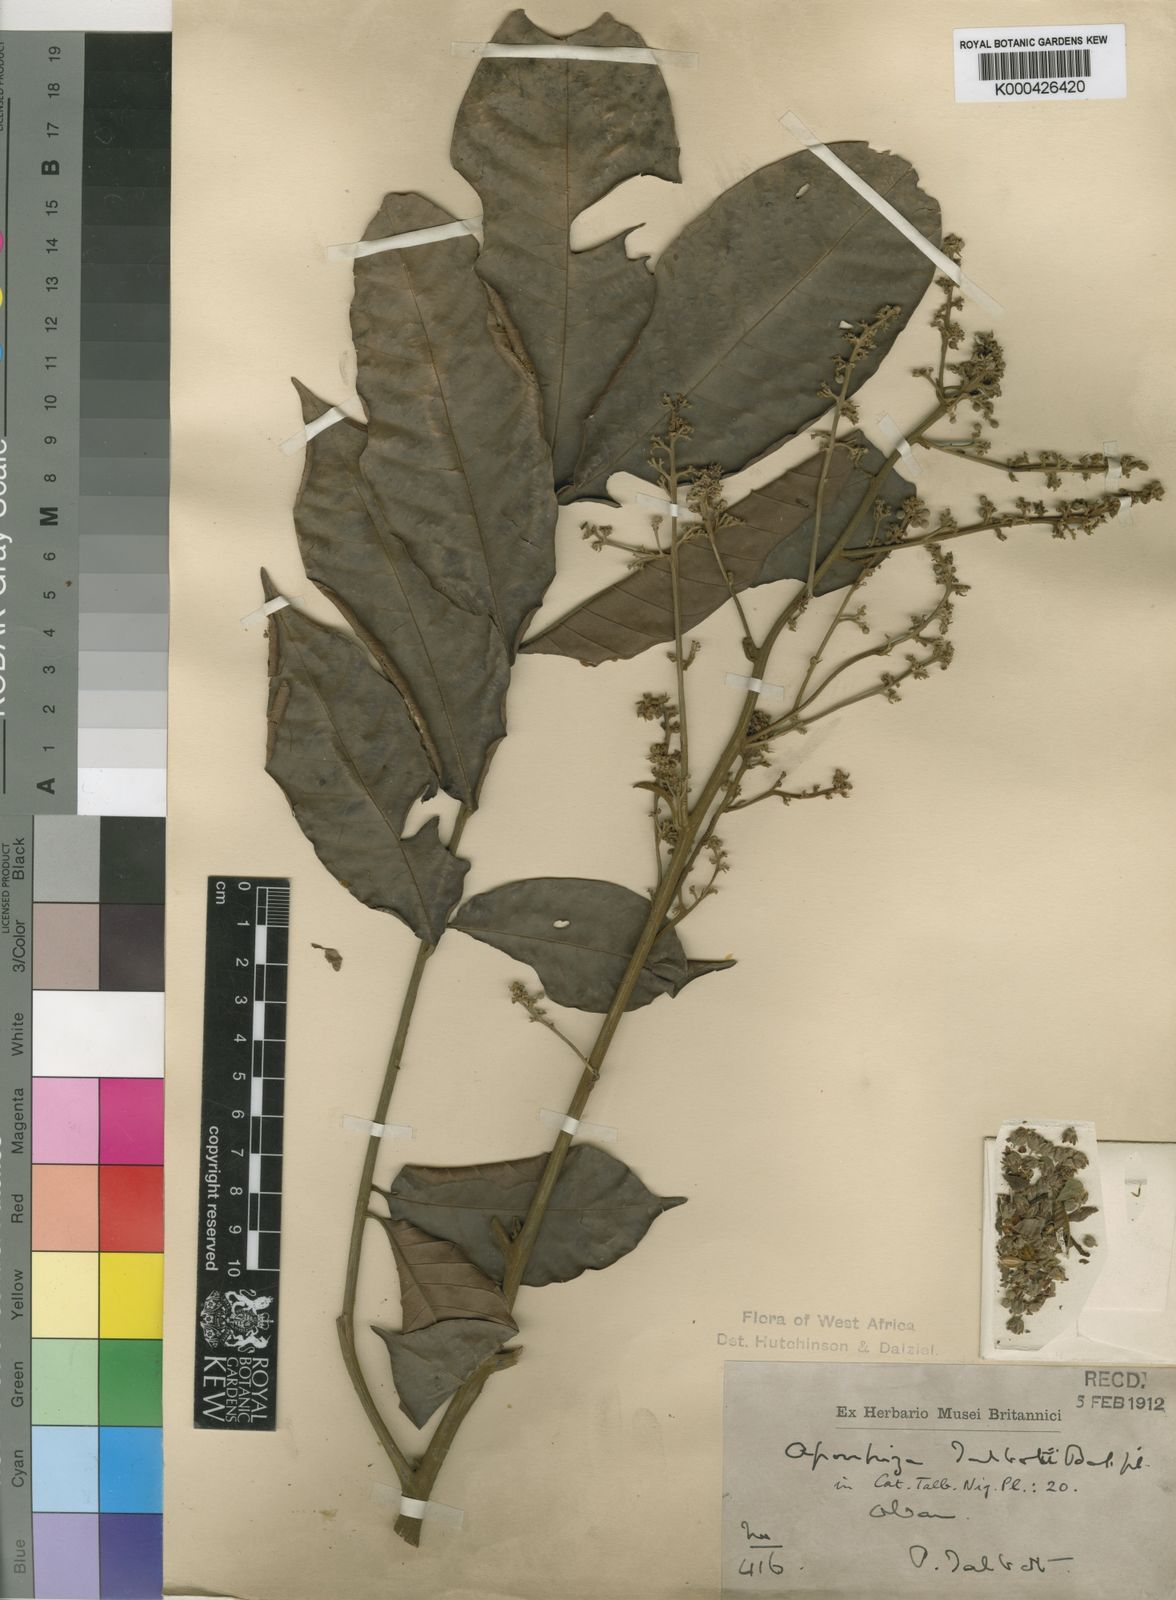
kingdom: Plantae
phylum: Tracheophyta
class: Magnoliopsida
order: Sapindales
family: Sapindaceae
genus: Aporrhiza
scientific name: Aporrhiza talbotii
